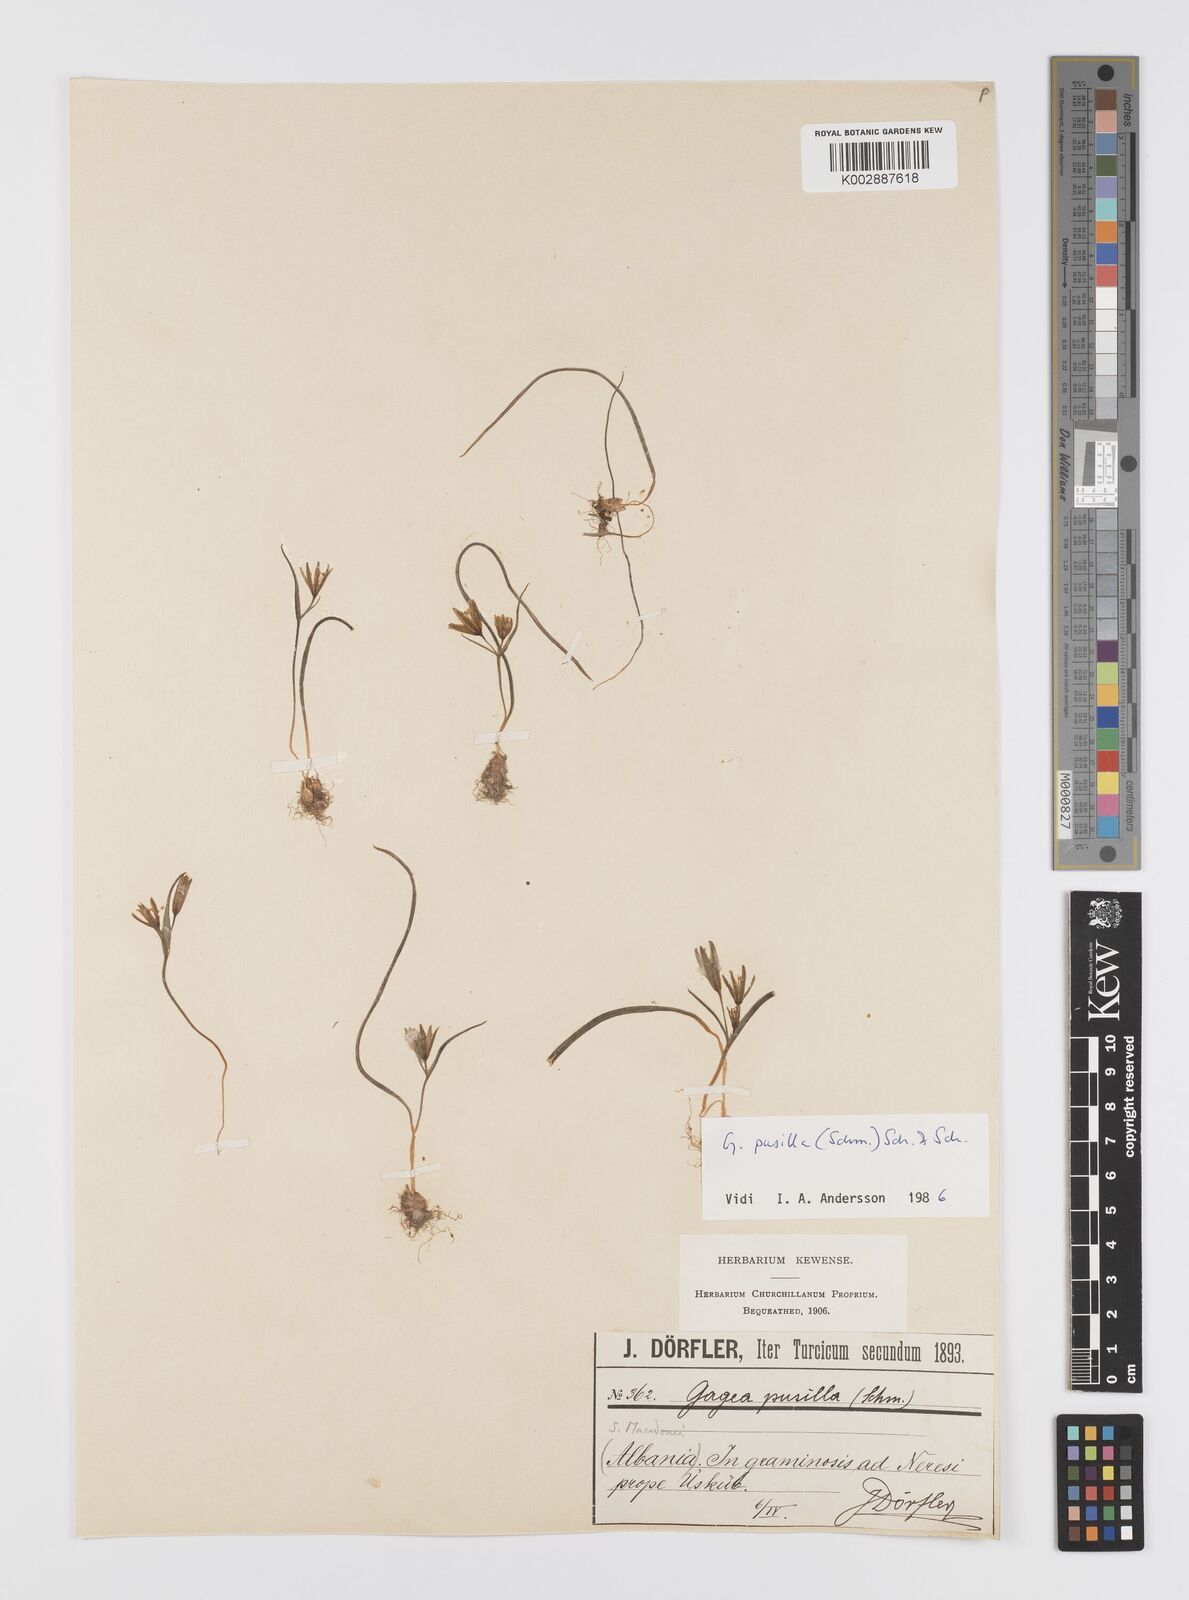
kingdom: Plantae
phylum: Tracheophyta
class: Liliopsida
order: Liliales
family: Liliaceae
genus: Gagea
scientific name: Gagea pusilla
